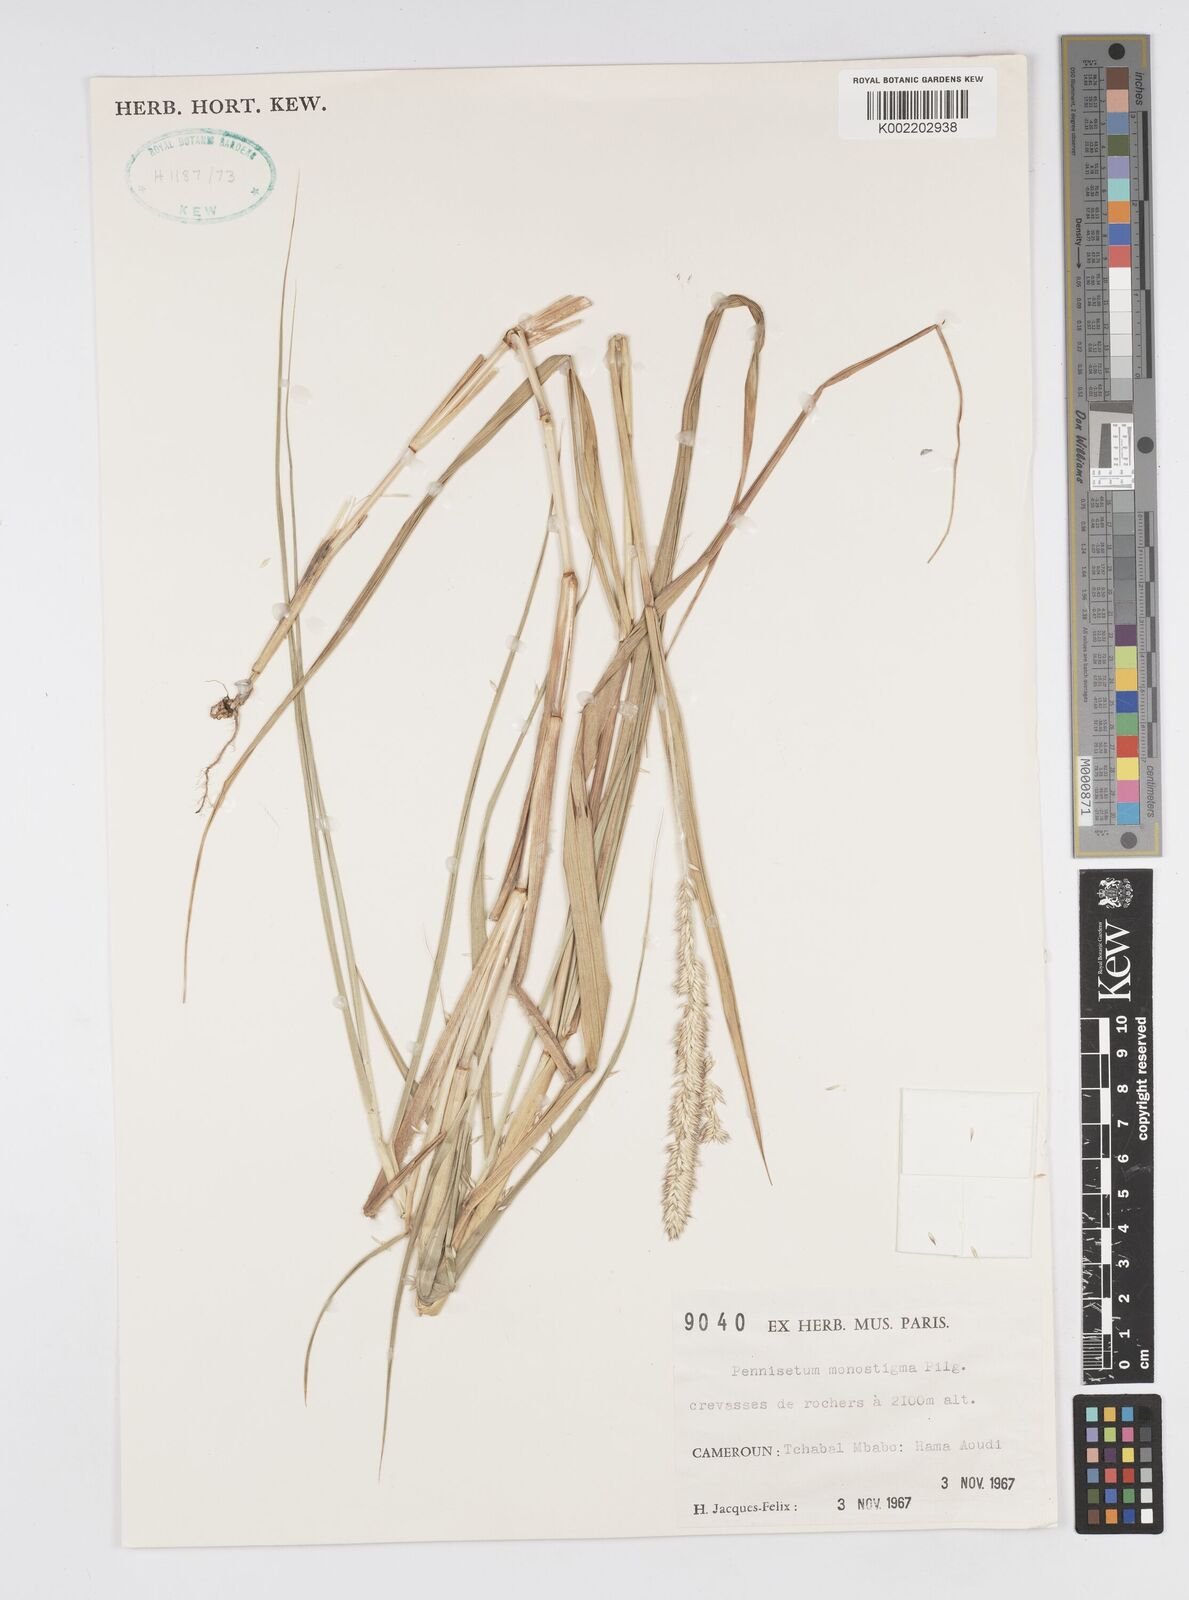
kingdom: Plantae
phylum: Tracheophyta
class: Liliopsida
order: Poales
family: Poaceae
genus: Cenchrus
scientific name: Cenchrus monostigma
